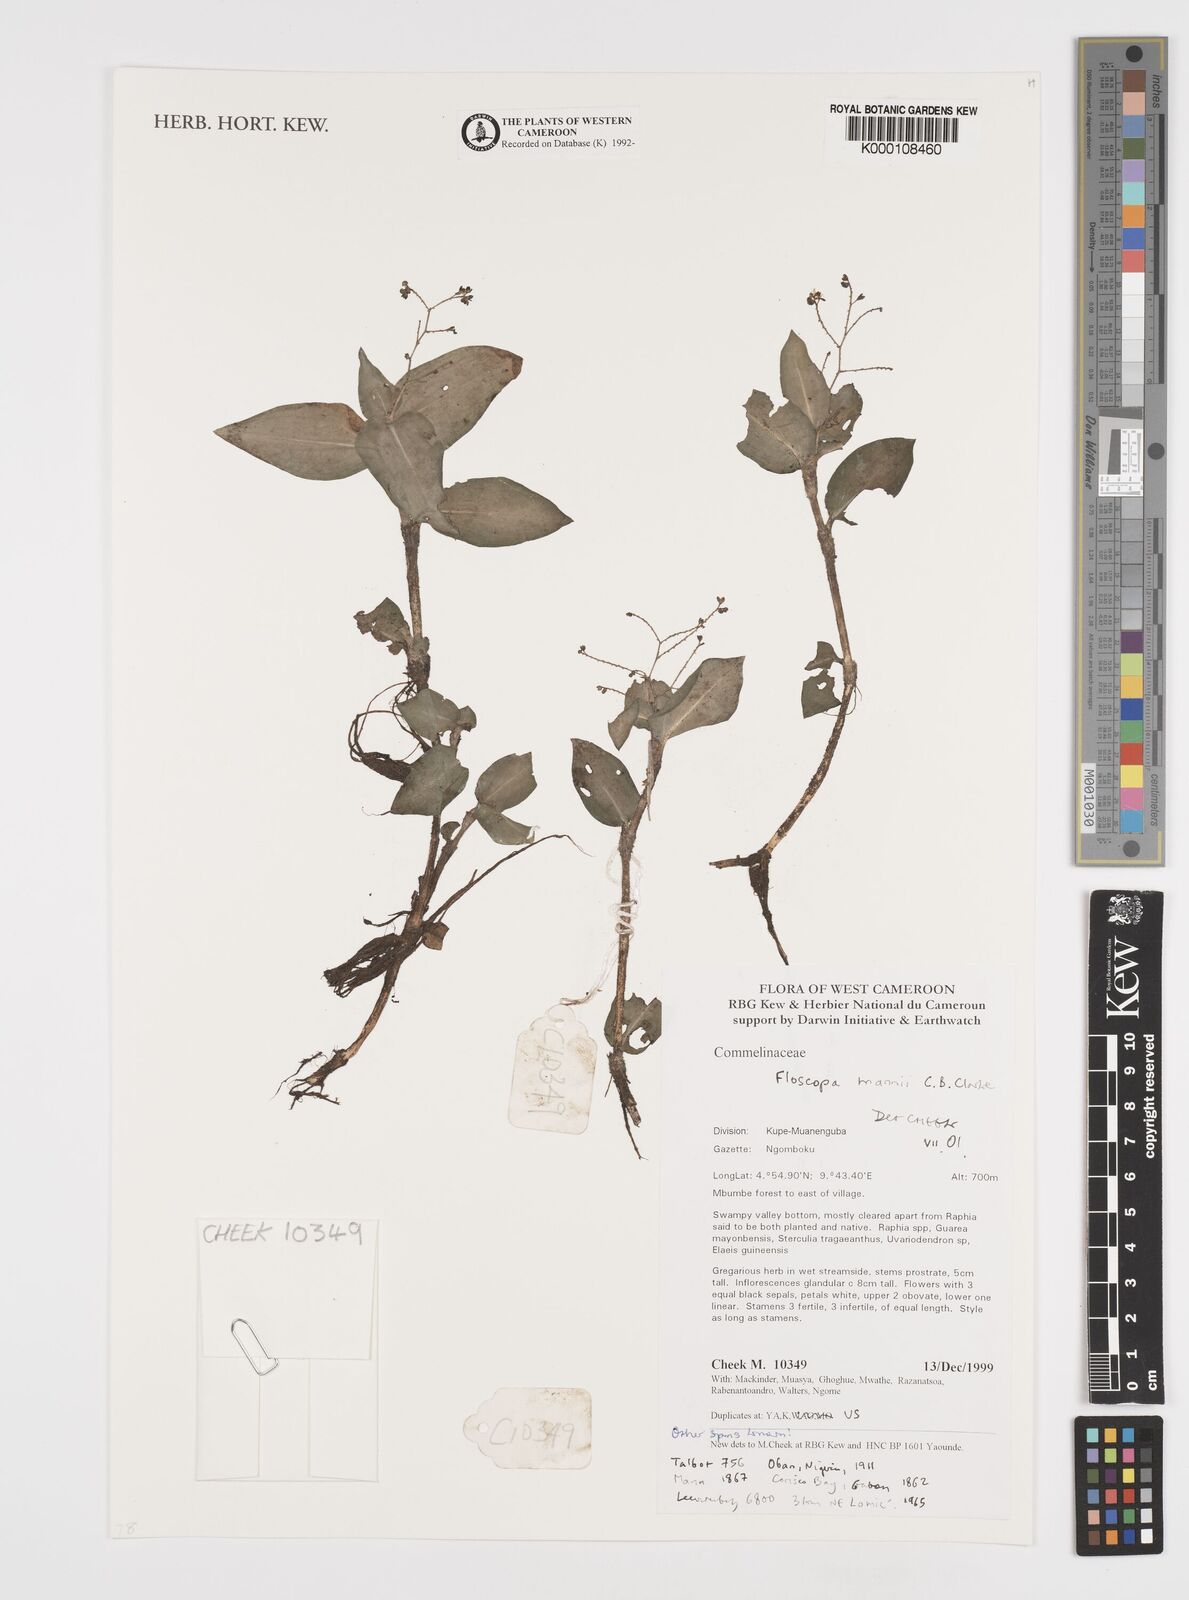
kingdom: Plantae
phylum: Tracheophyta
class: Liliopsida
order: Commelinales
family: Commelinaceae
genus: Floscopa
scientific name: Floscopa mannii
